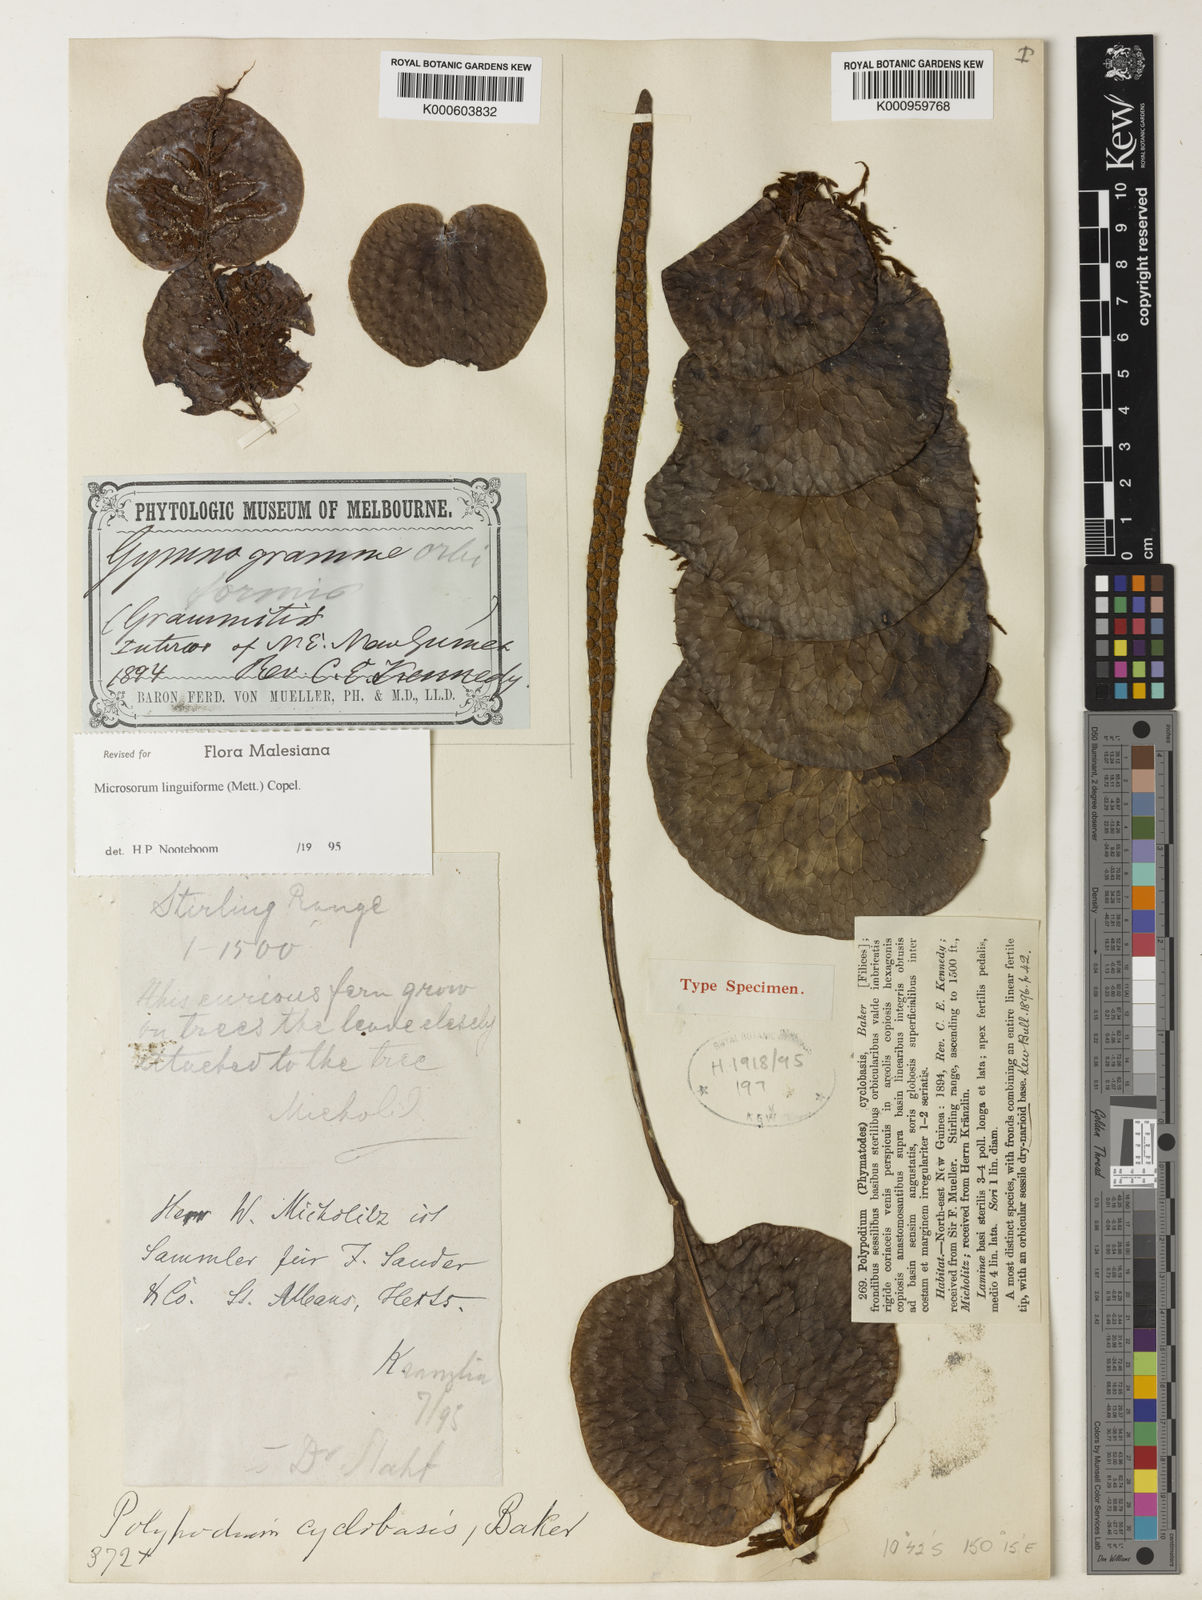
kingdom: Plantae
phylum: Tracheophyta
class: Polypodiopsida
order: Polypodiales
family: Polypodiaceae
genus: Lecanopteris
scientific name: Lecanopteris linguiformis
